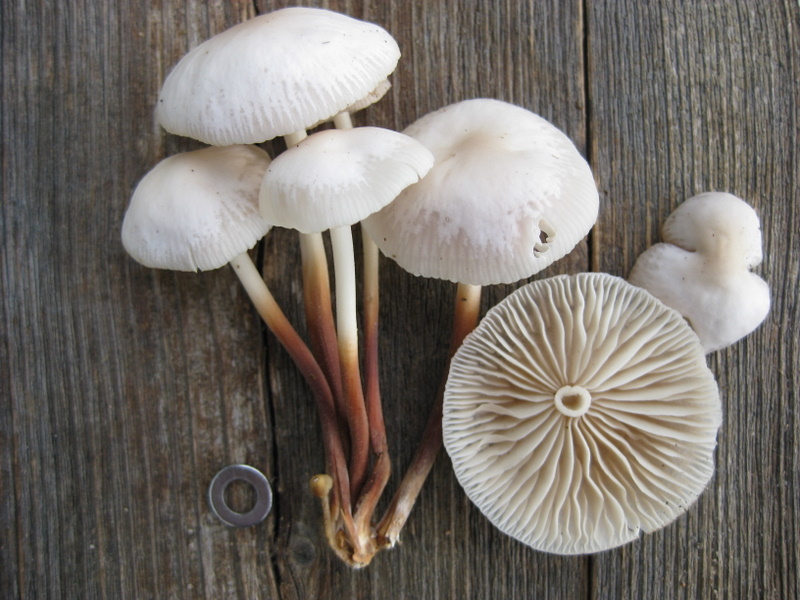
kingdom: Fungi
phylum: Basidiomycota
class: Agaricomycetes
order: Agaricales
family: Marasmiaceae
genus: Marasmius
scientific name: Marasmius wynneae
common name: hvælvet bruskhat
